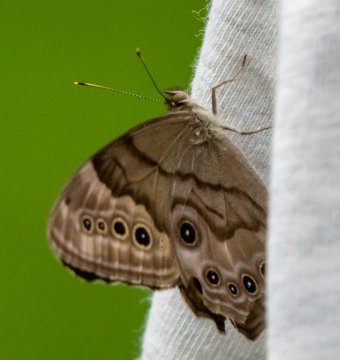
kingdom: Animalia
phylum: Arthropoda
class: Insecta
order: Lepidoptera
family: Nymphalidae
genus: Lethe
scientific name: Lethe anthedon
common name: Northern Pearly-Eye
